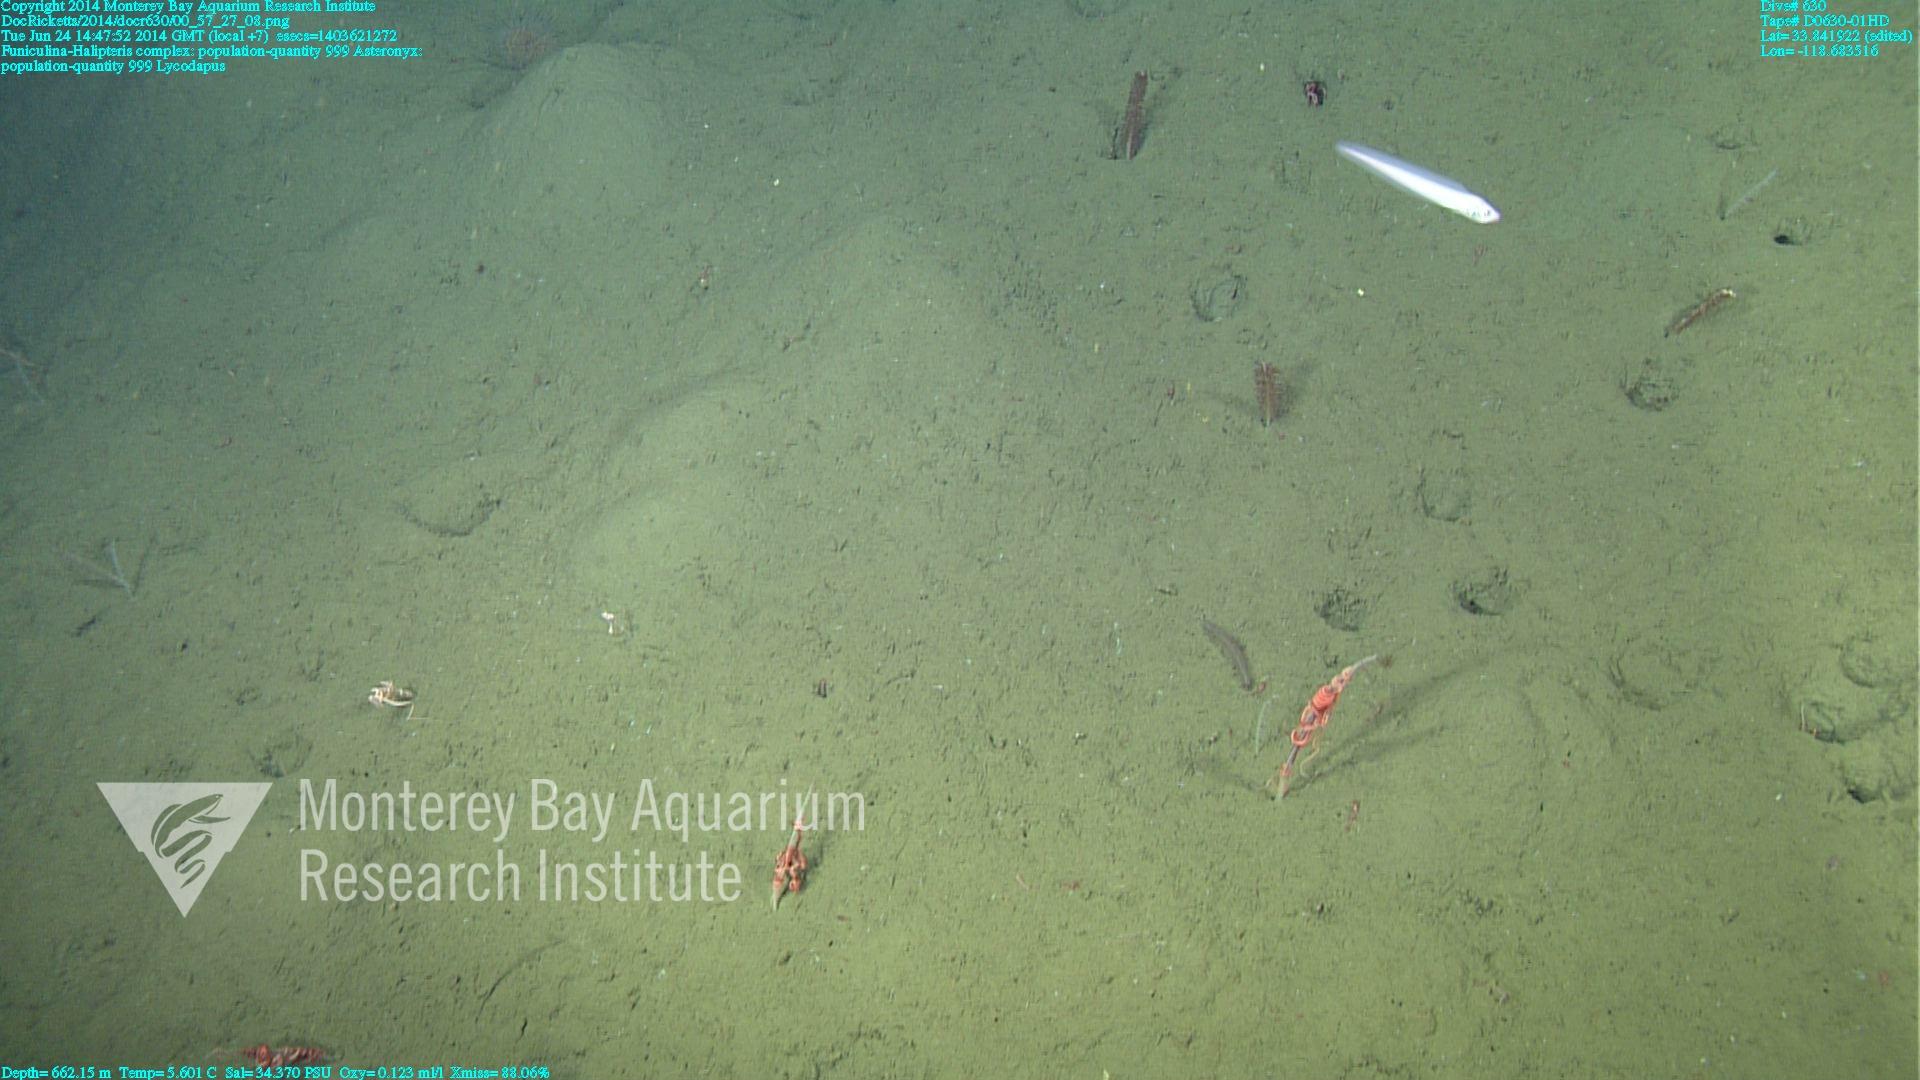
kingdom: Animalia
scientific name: Animalia
